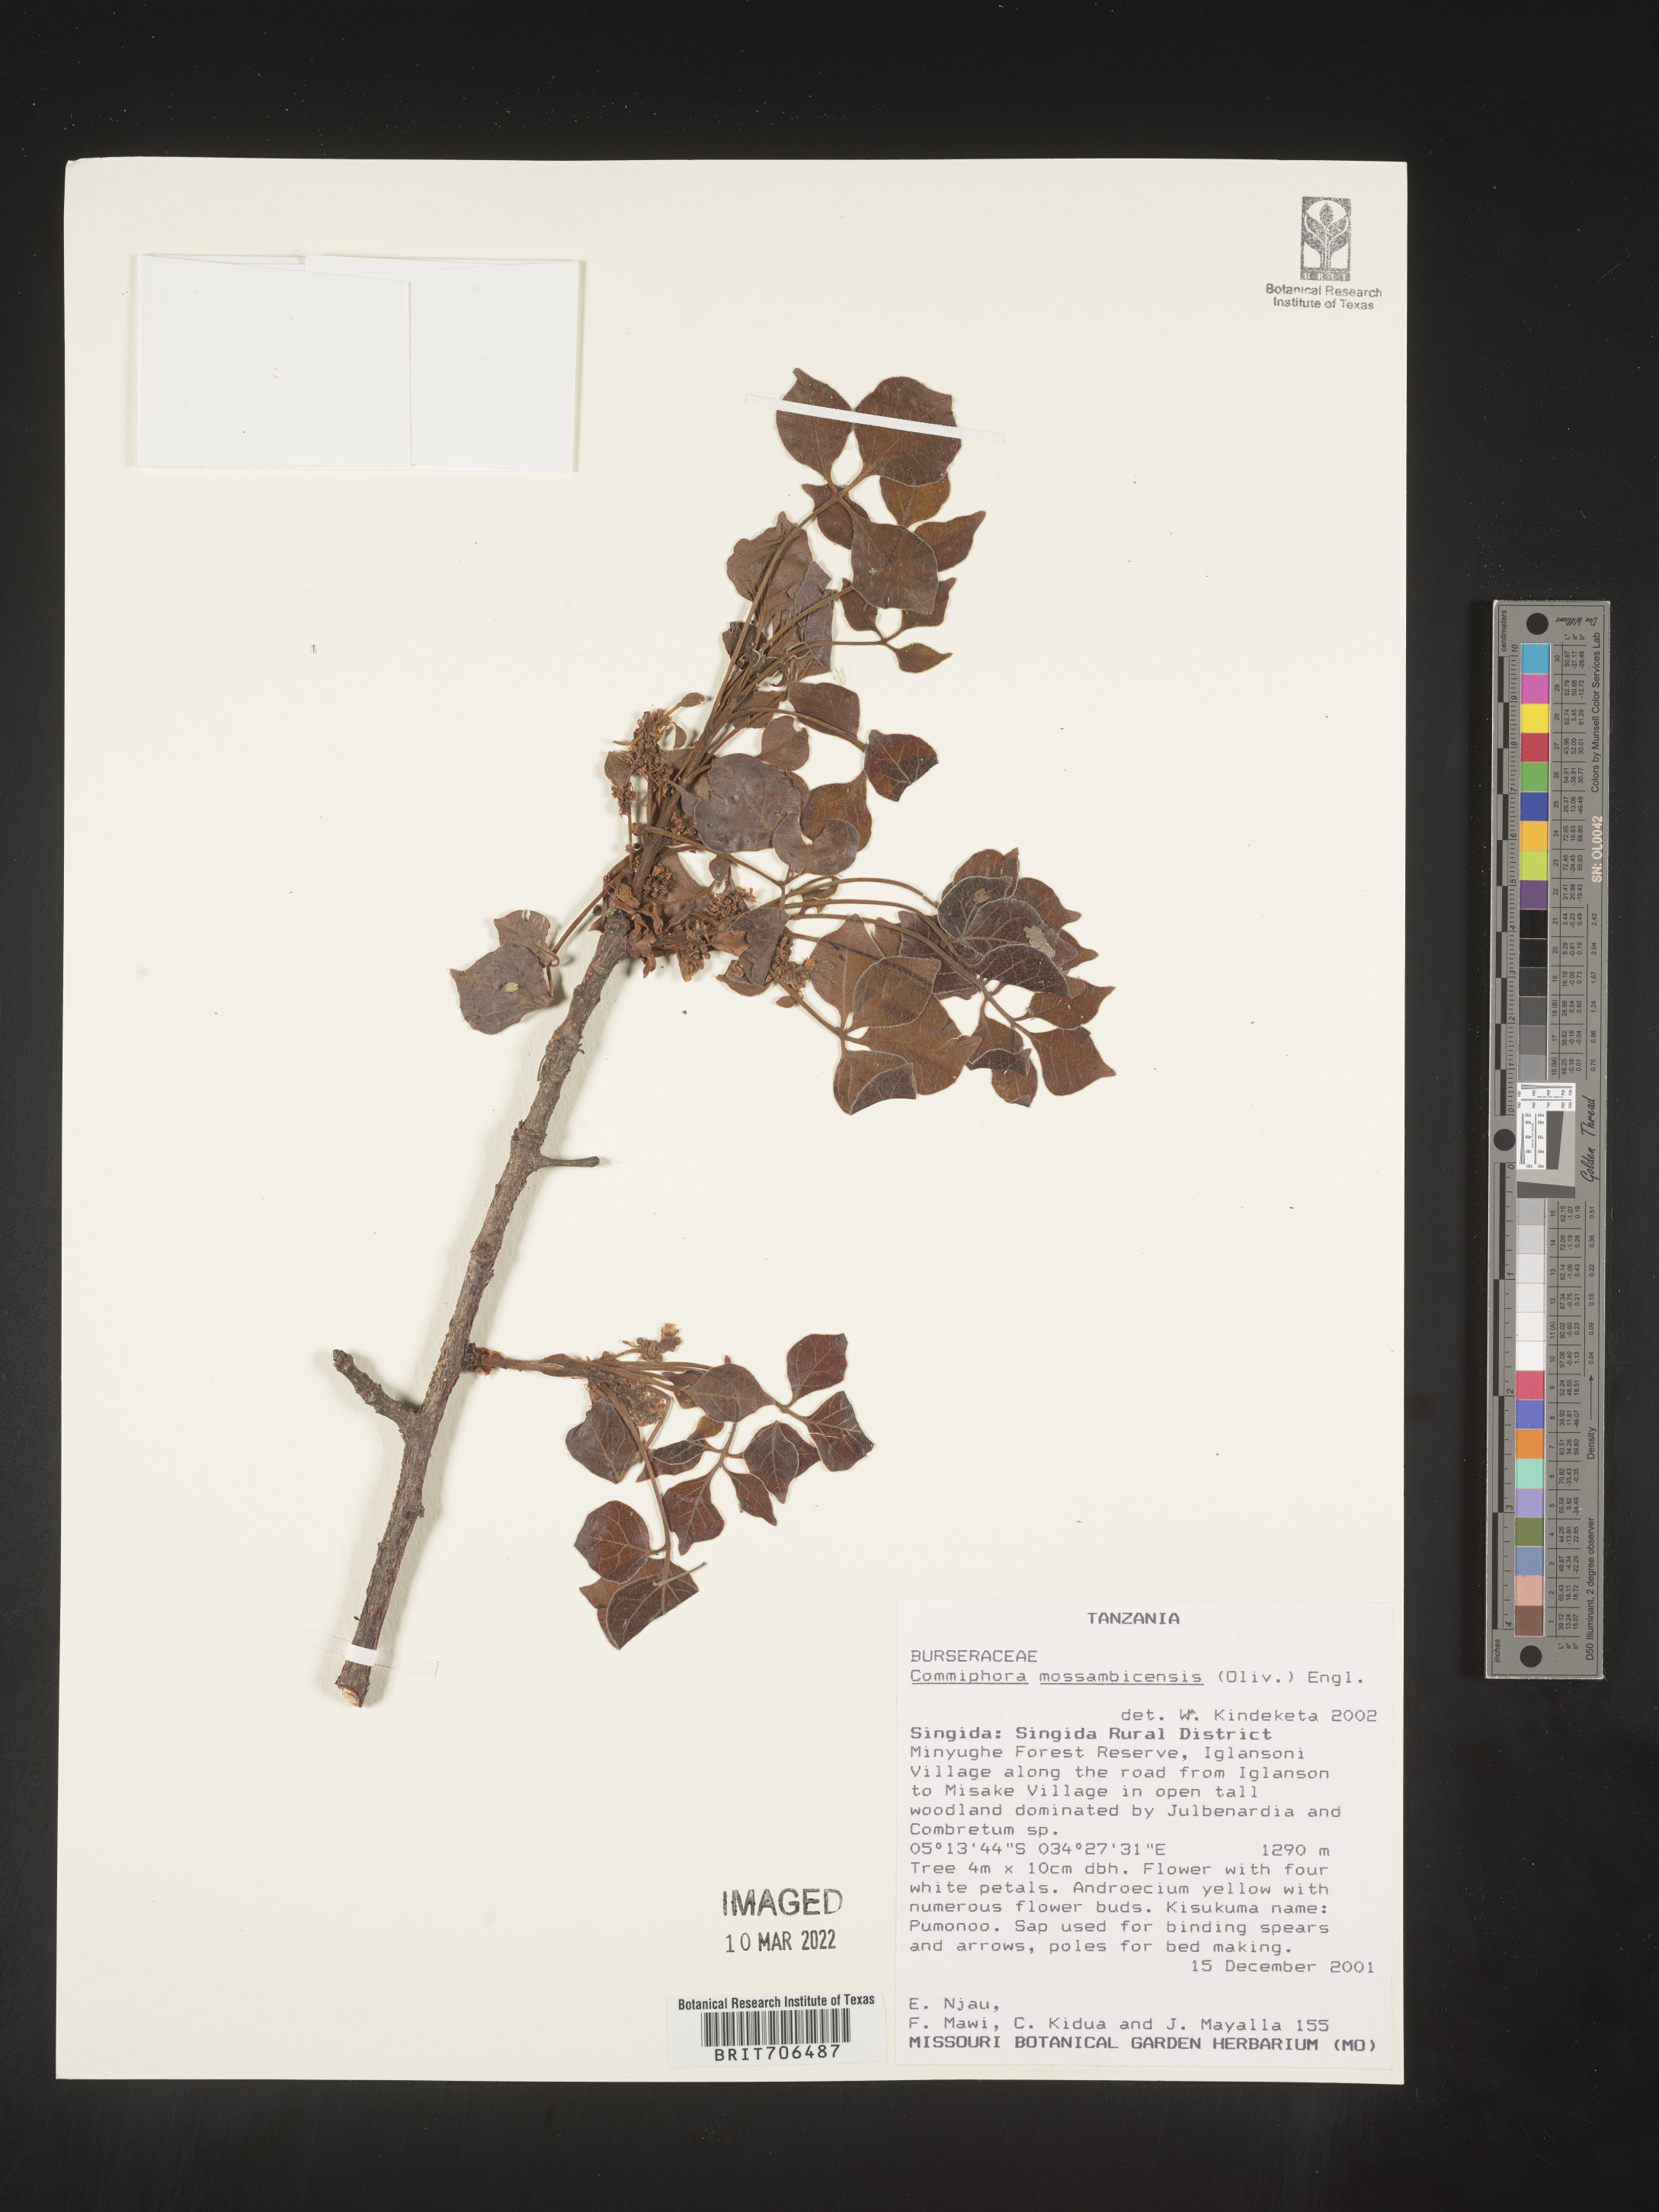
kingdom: Plantae
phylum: Tracheophyta
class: Magnoliopsida
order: Sapindales
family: Burseraceae
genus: Commiphora
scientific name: Commiphora
